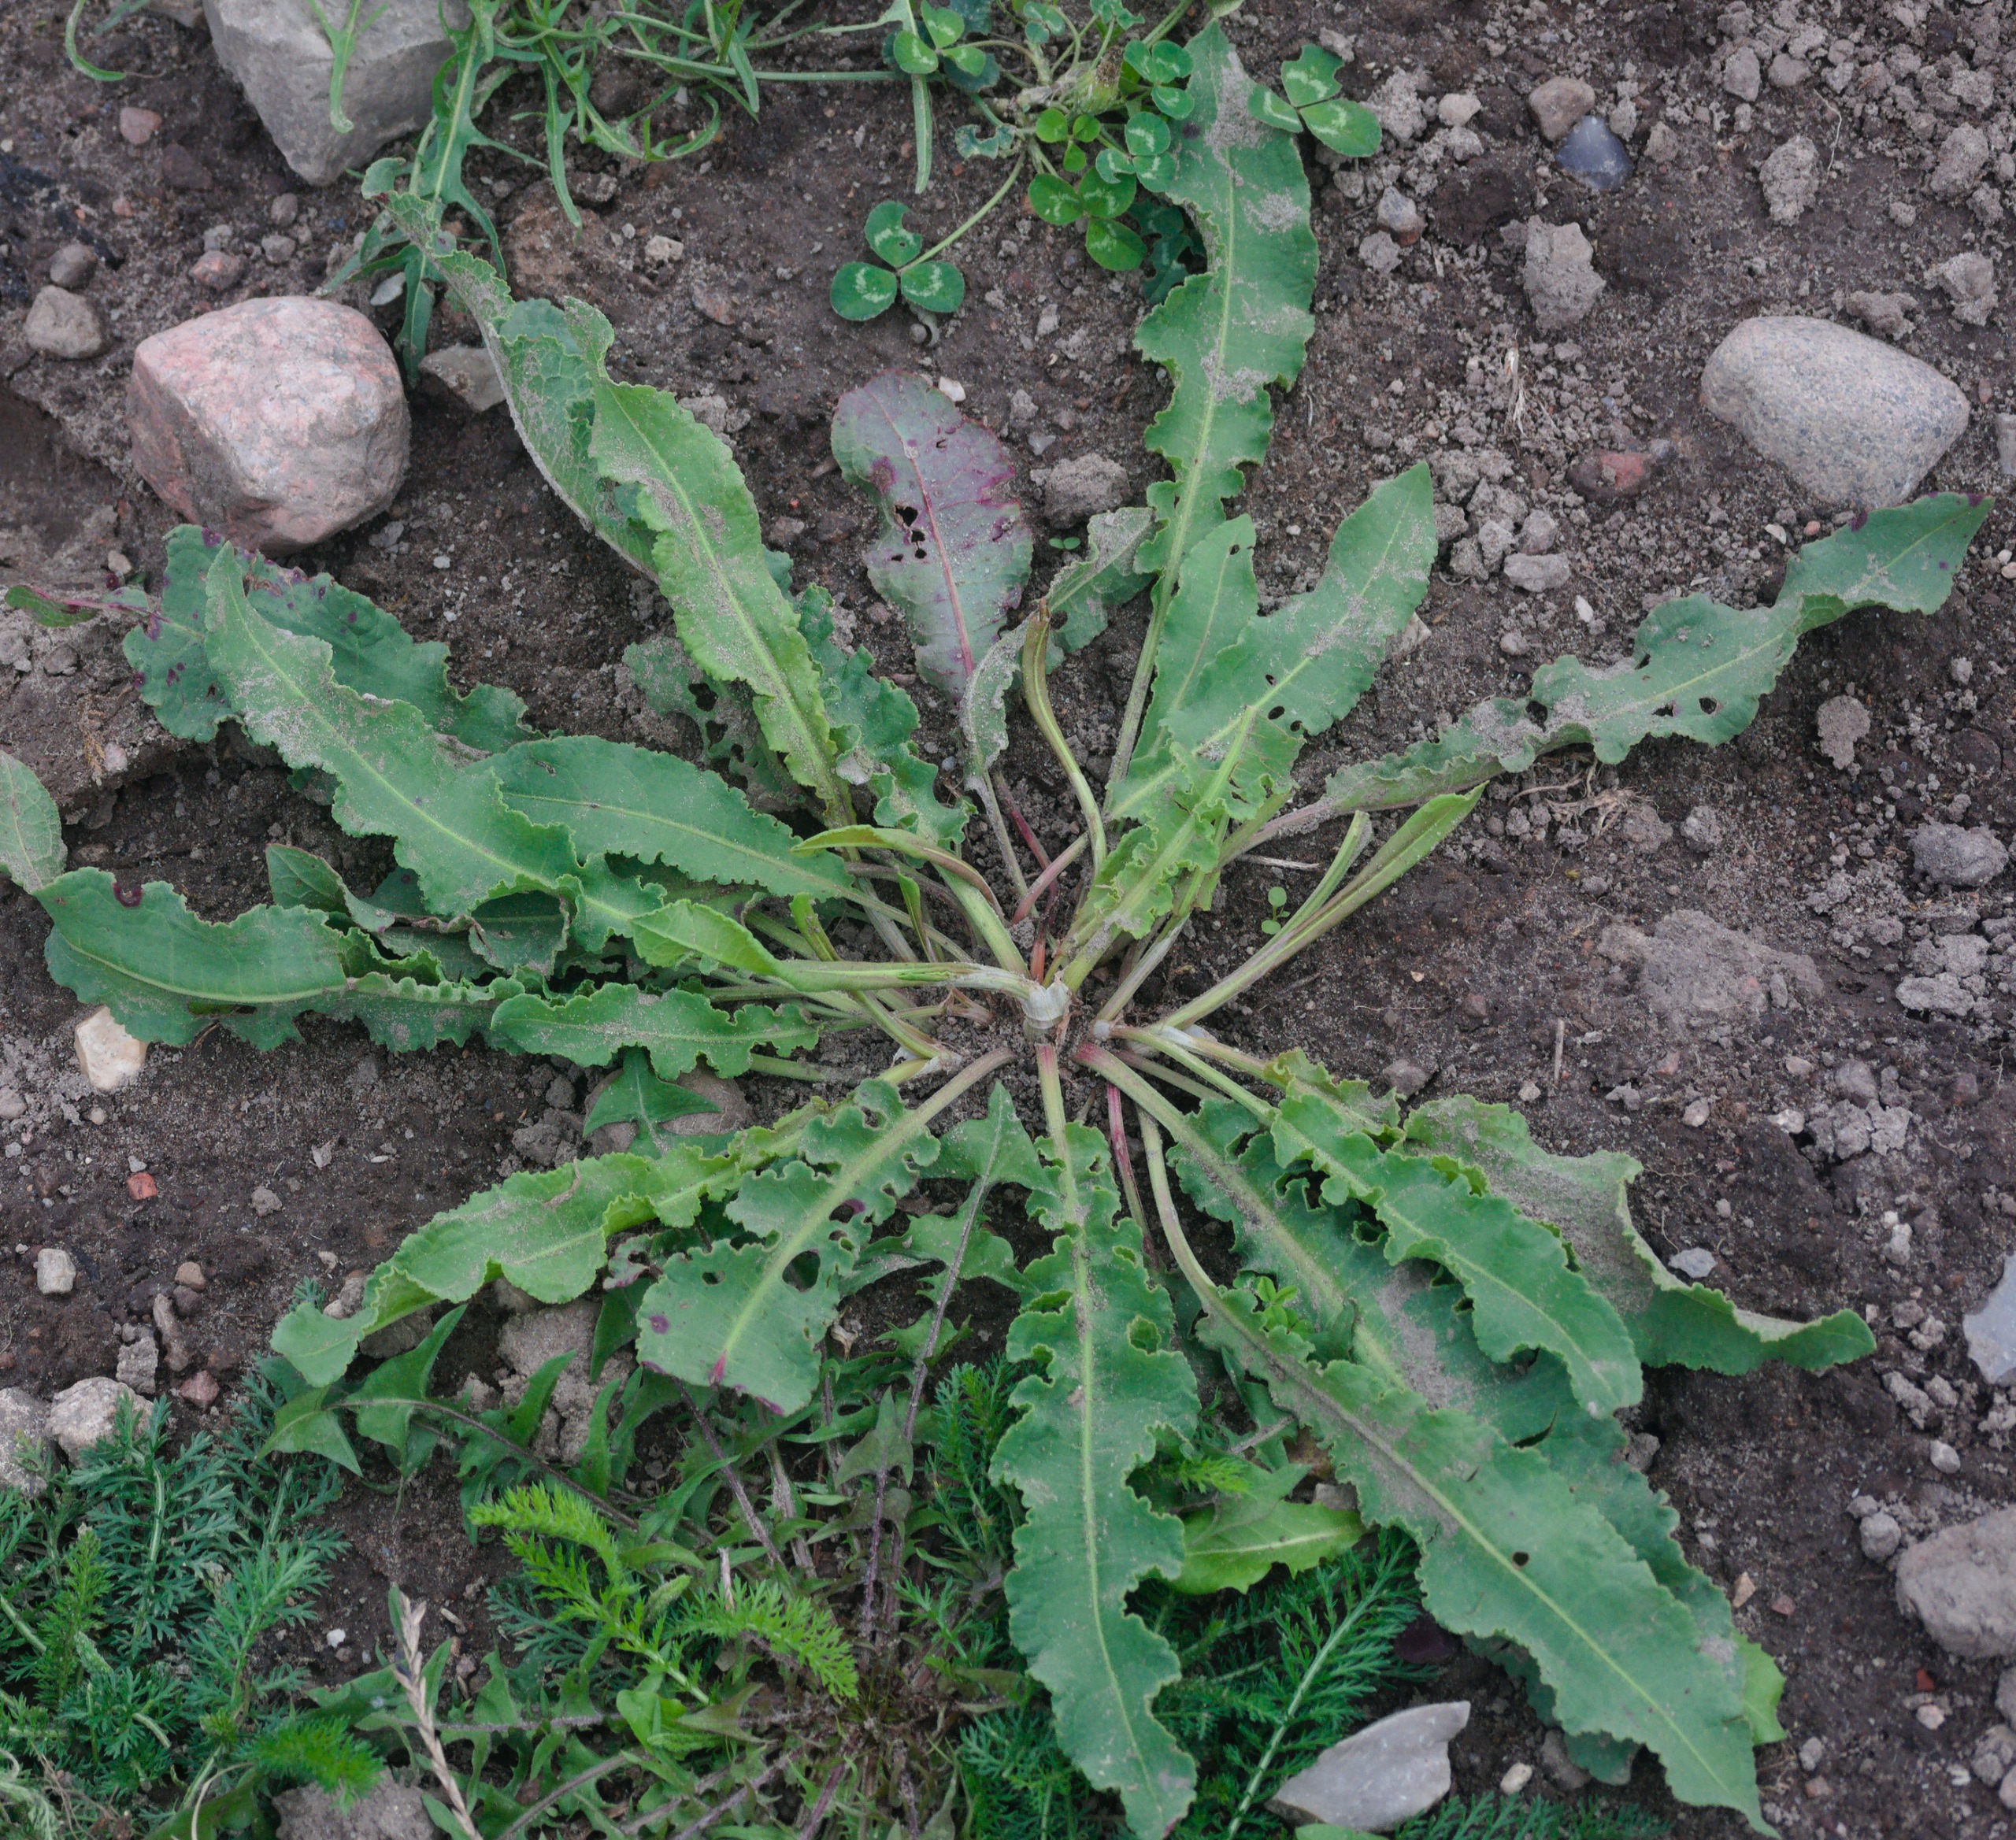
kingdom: Plantae
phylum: Tracheophyta
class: Magnoliopsida
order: Caryophyllales
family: Polygonaceae
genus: Rumex
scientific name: Rumex crispus
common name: Kruset skræppe
